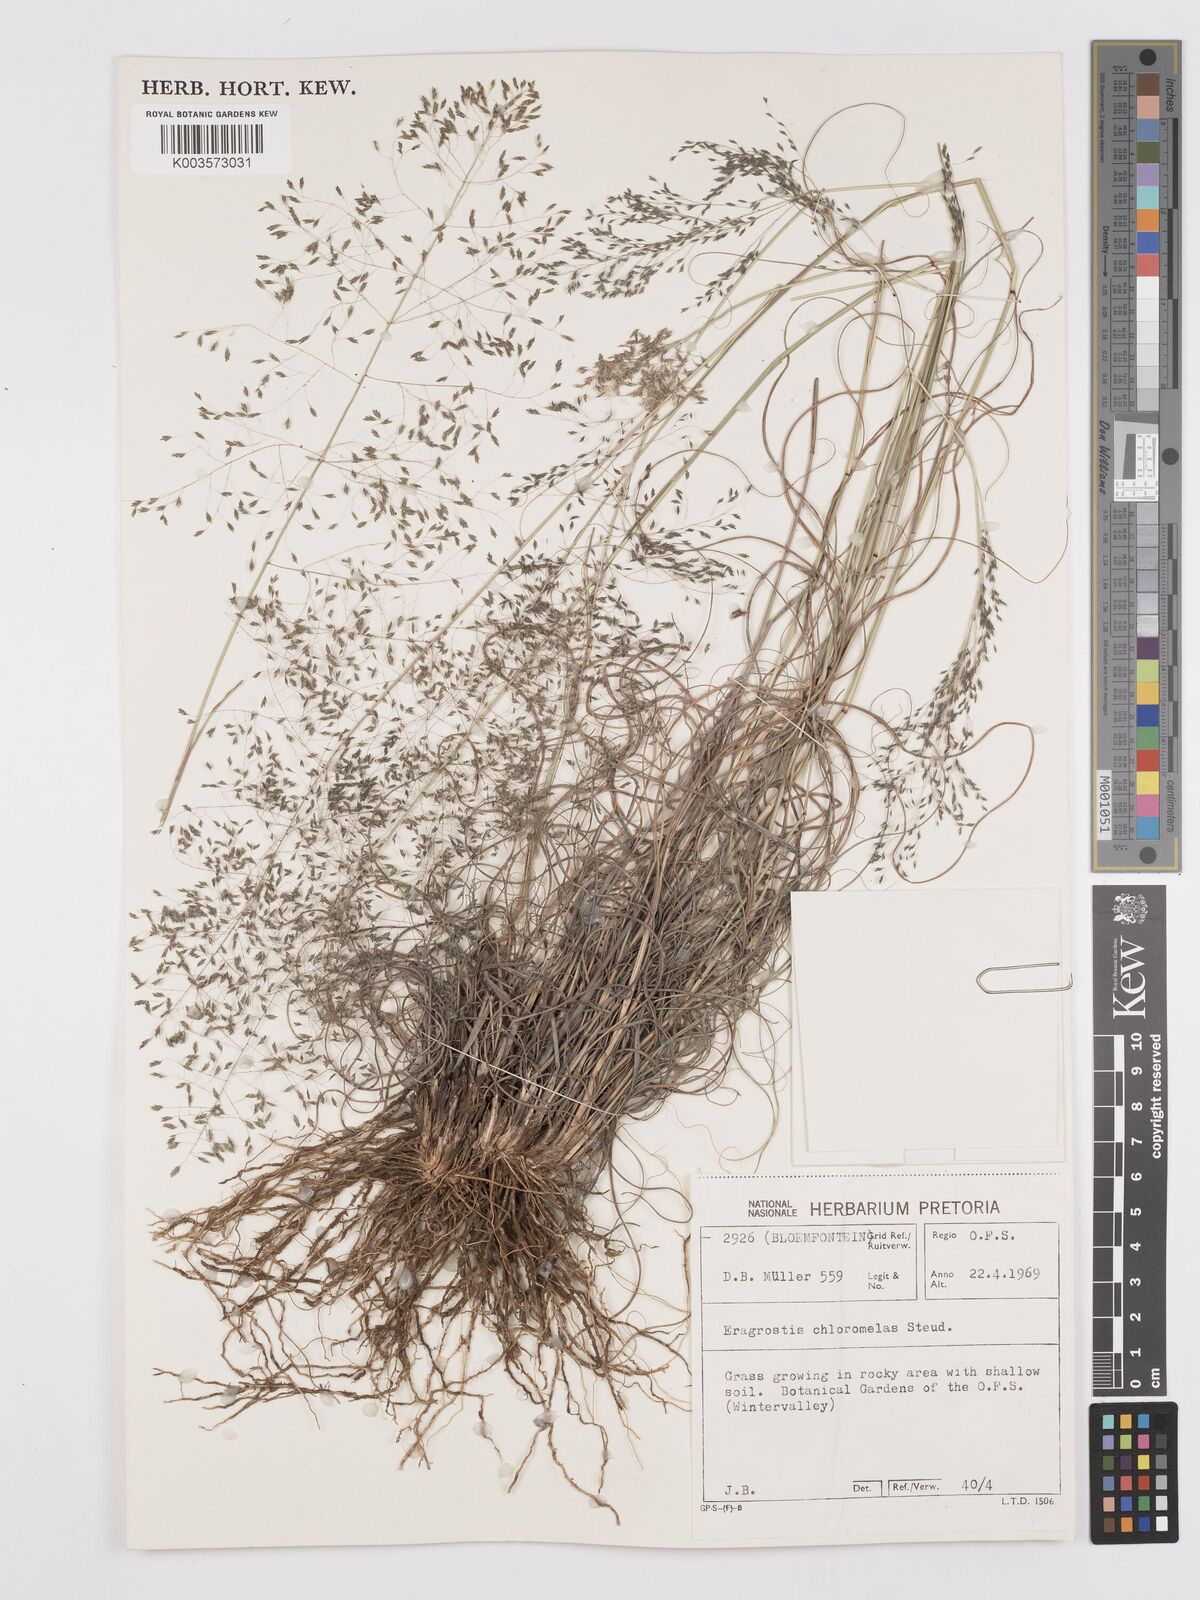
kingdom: Plantae
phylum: Tracheophyta
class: Liliopsida
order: Poales
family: Poaceae
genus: Eragrostis
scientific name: Eragrostis curvula
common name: African love-grass
